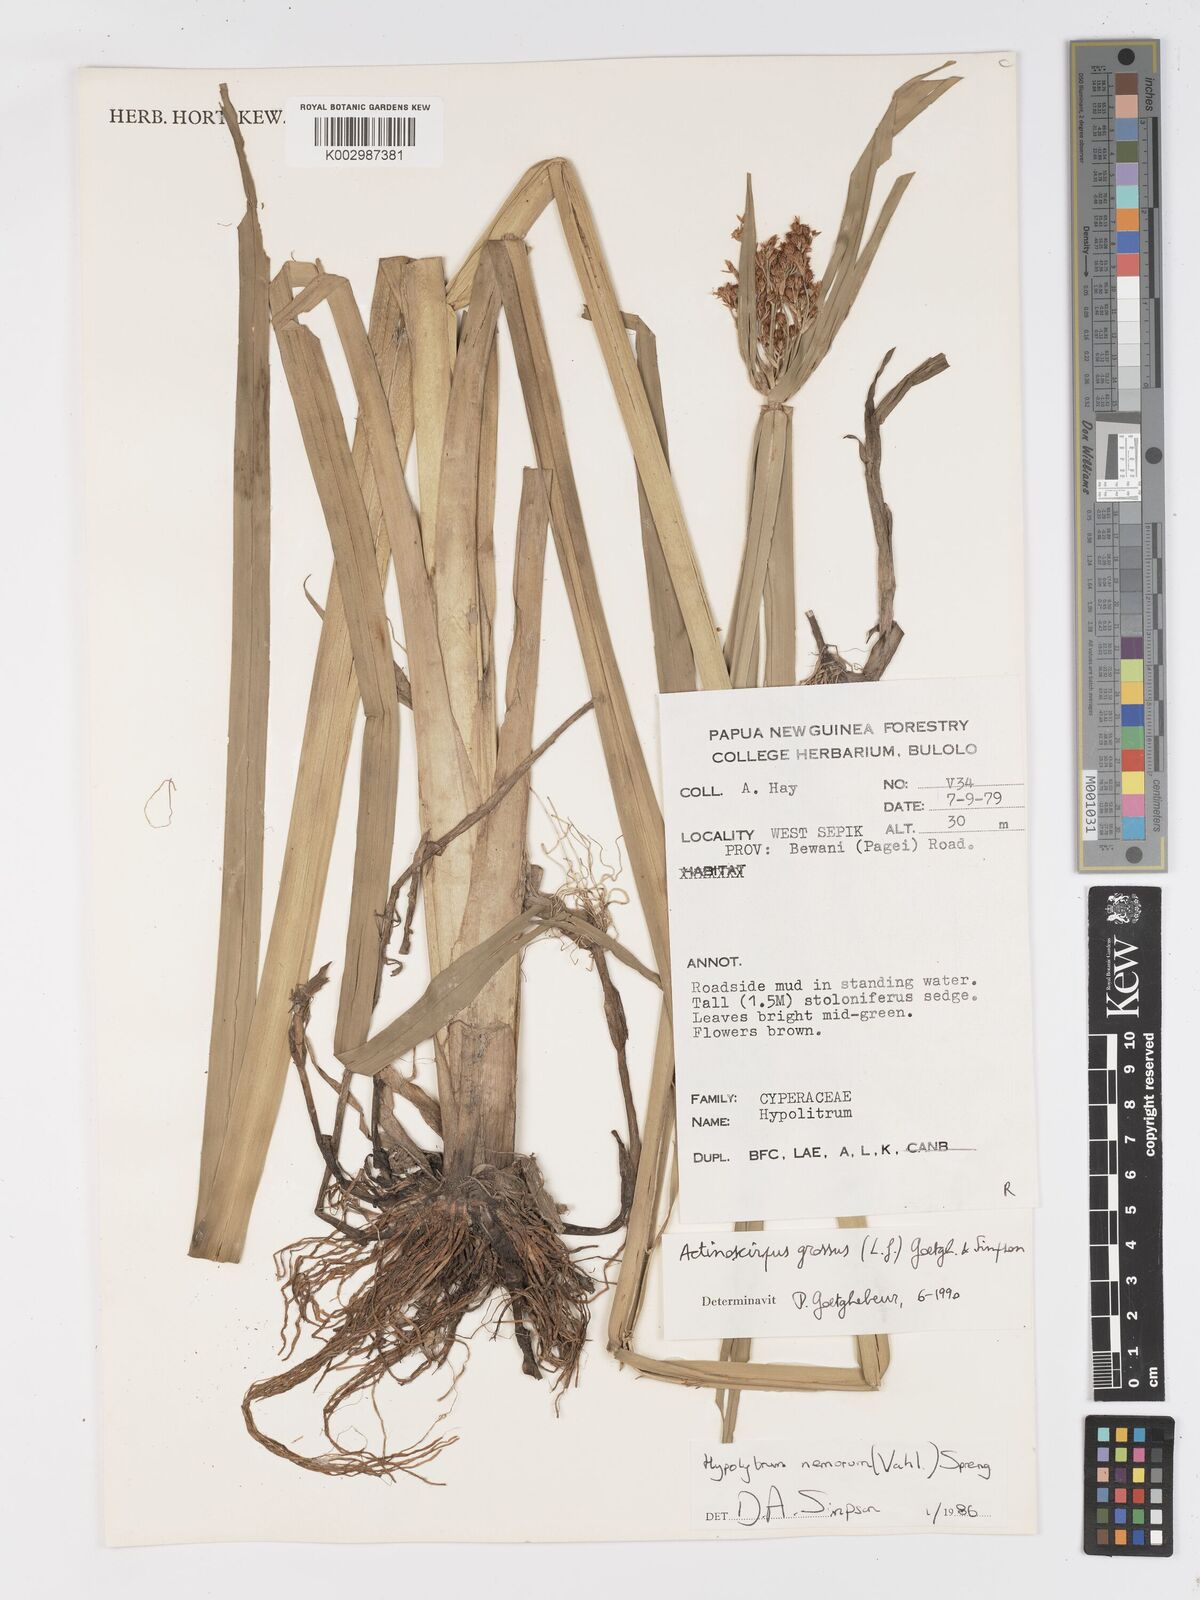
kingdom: Plantae
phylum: Tracheophyta
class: Liliopsida
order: Poales
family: Cyperaceae
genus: Actinoscirpus
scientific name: Actinoscirpus grossus
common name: Giant bur rush
